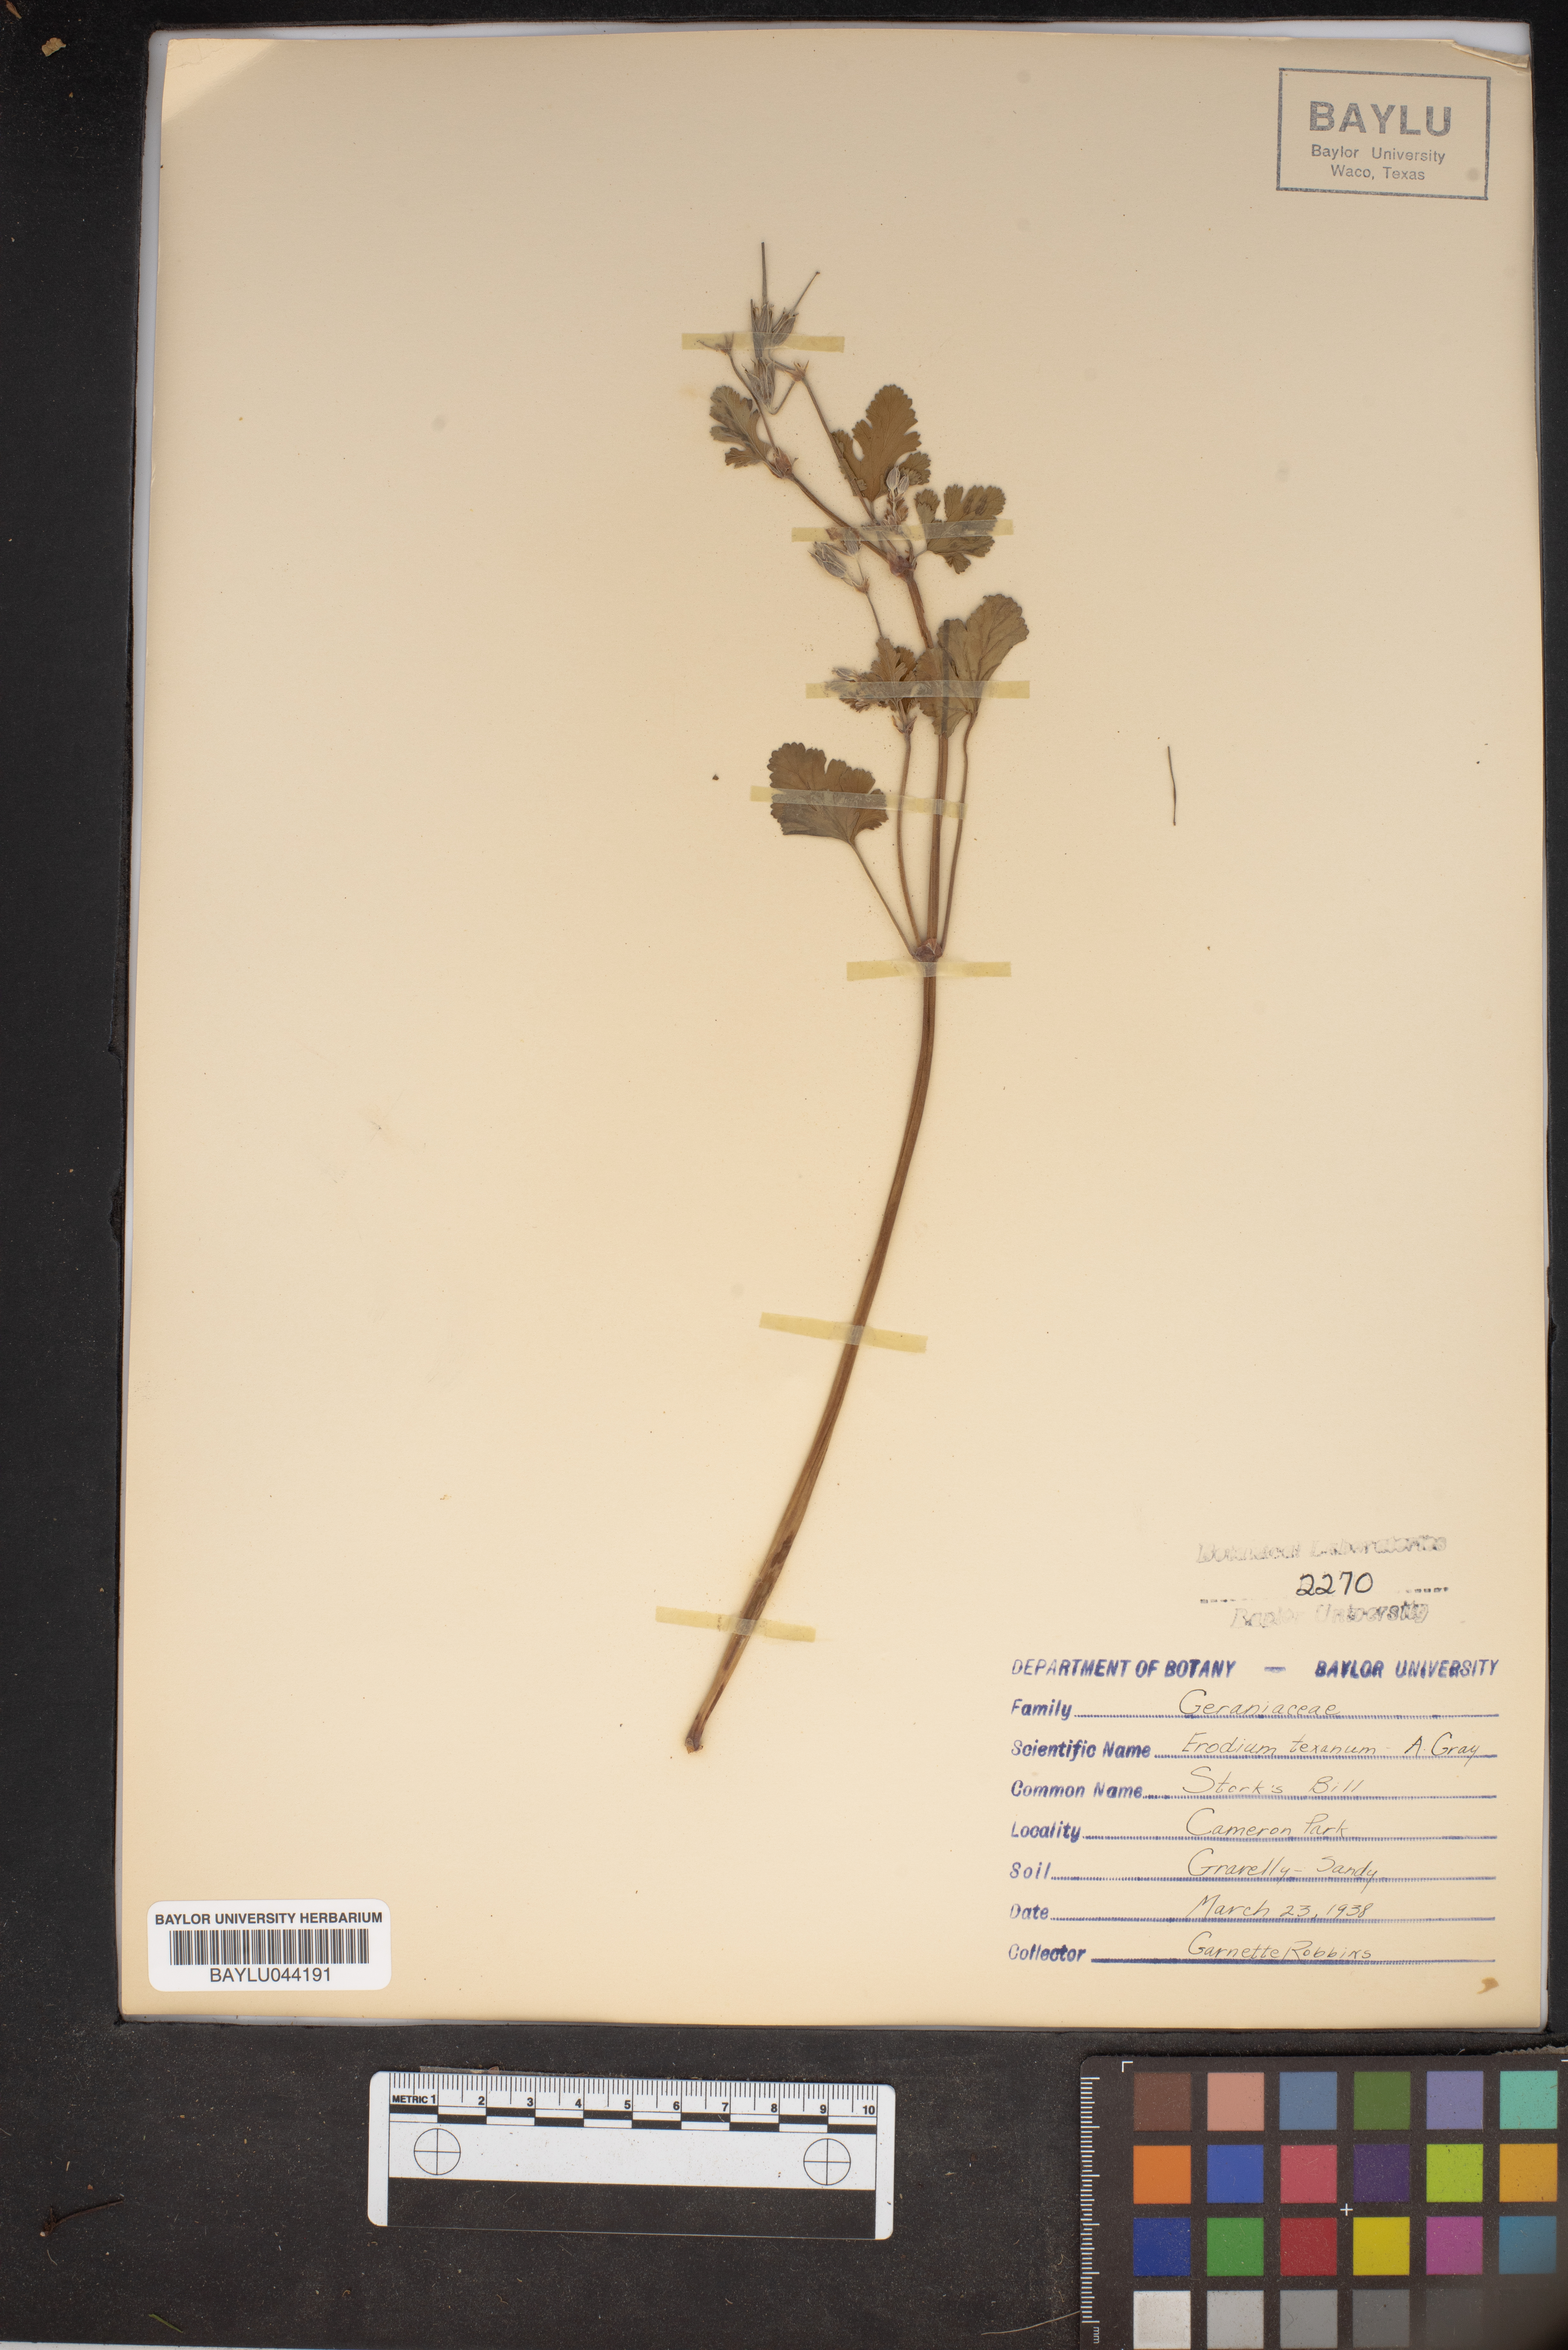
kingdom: Plantae
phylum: Tracheophyta
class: Magnoliopsida
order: Geraniales
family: Geraniaceae
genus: Erodium
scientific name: Erodium texanum
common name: Texas stork's-bill
